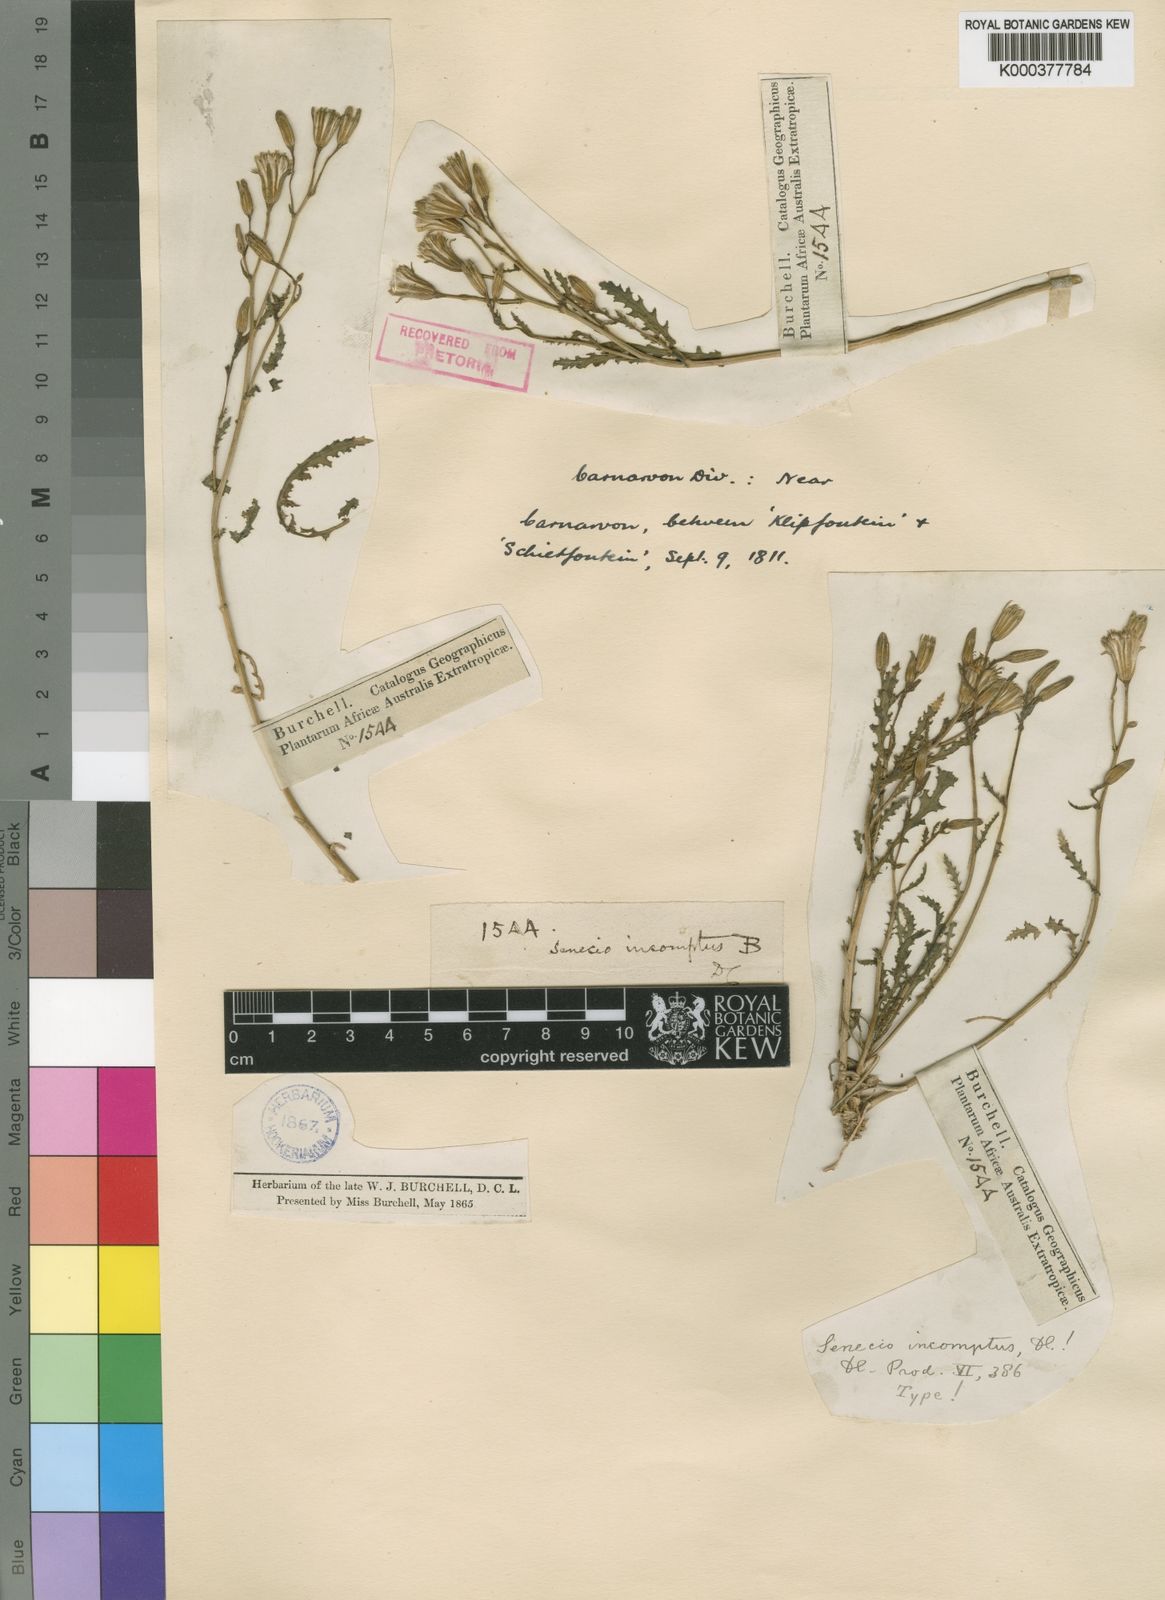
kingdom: Plantae
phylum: Tracheophyta
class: Magnoliopsida
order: Asterales
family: Asteraceae
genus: Senecio
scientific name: Senecio incomptus
